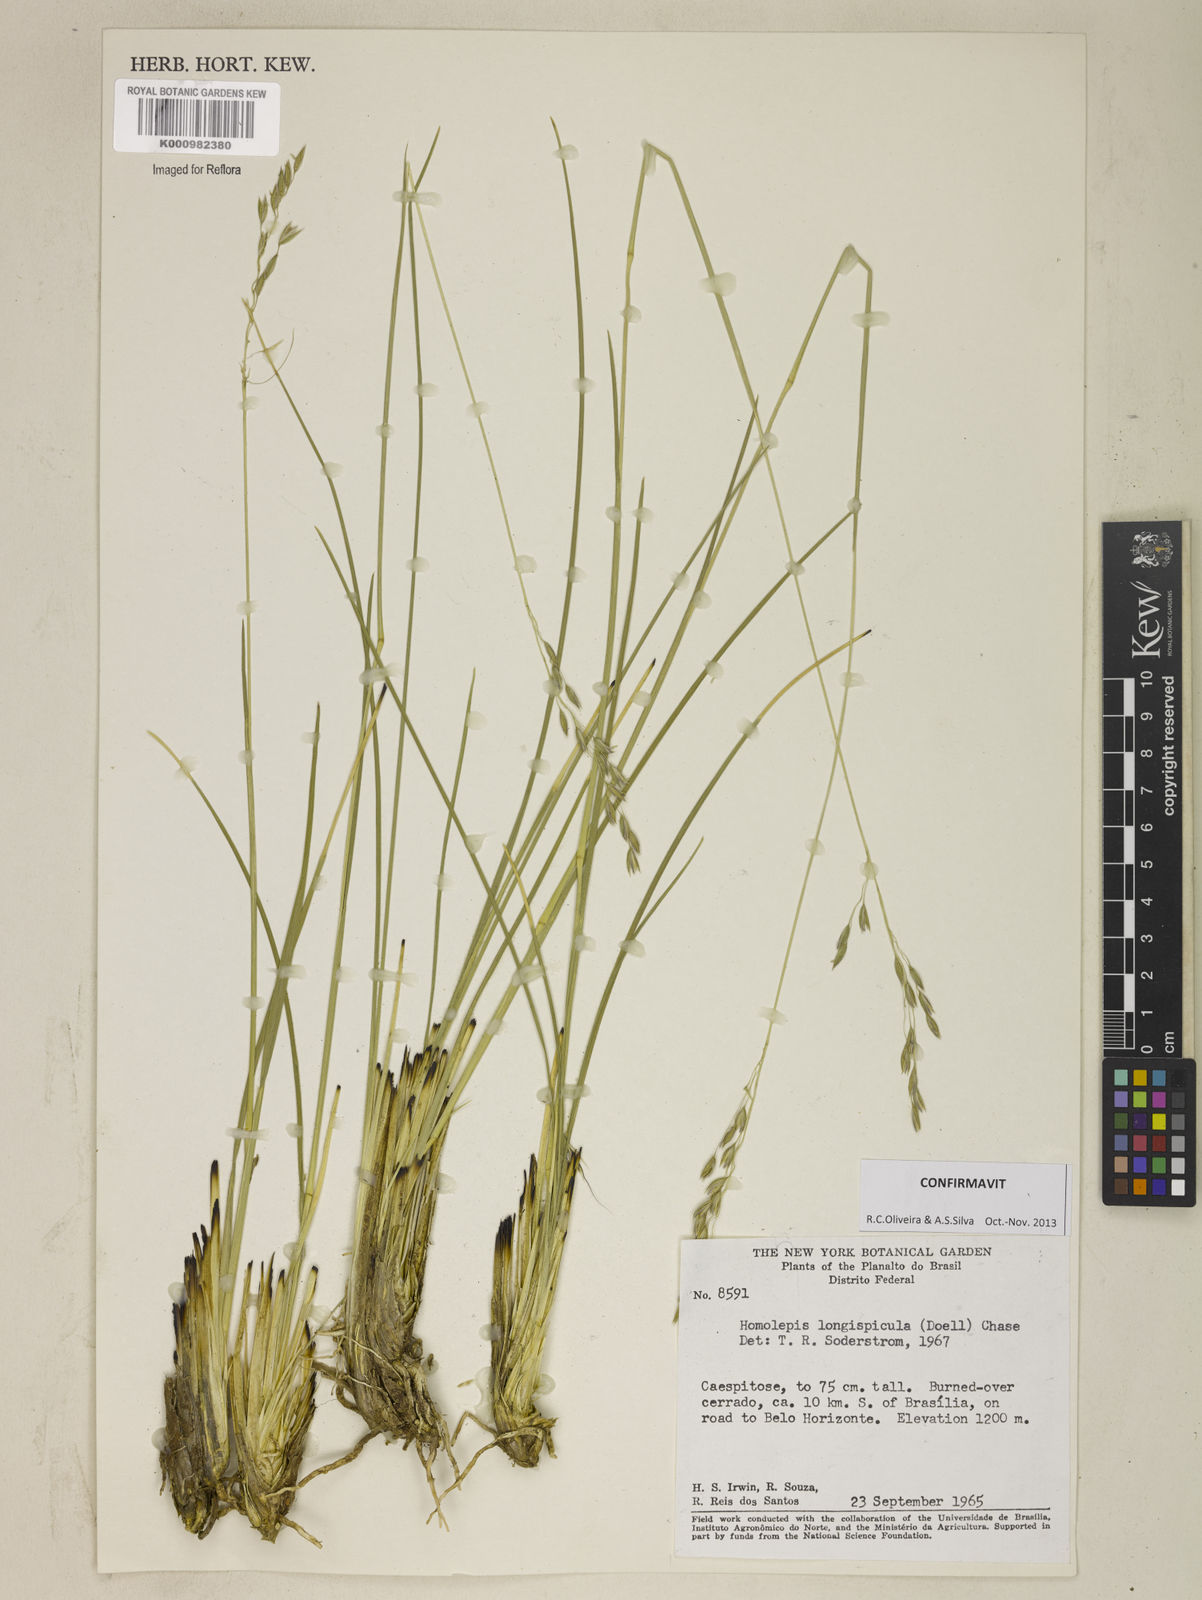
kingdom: Plantae
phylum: Tracheophyta
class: Liliopsida
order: Poales
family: Poaceae
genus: Homolepis
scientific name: Homolepis
